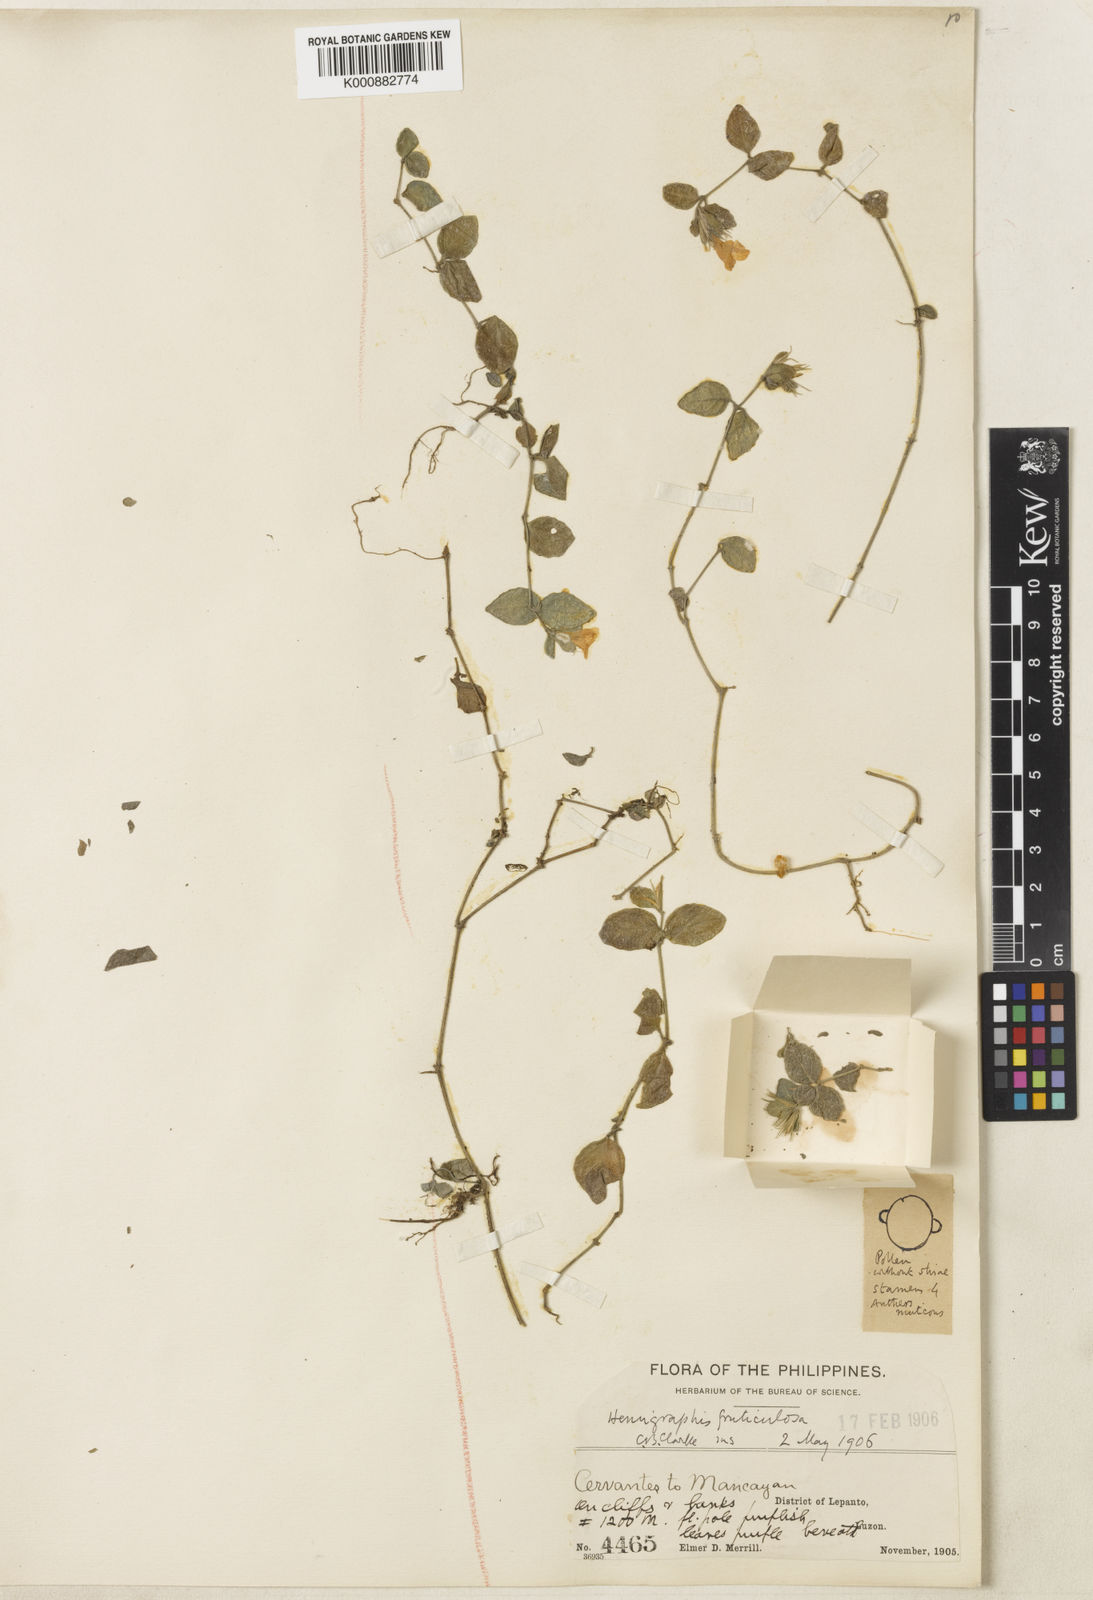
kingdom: Plantae
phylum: Tracheophyta
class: Magnoliopsida
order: Lamiales
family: Acanthaceae
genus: Strobilanthes
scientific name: Strobilanthes fruticulosa
